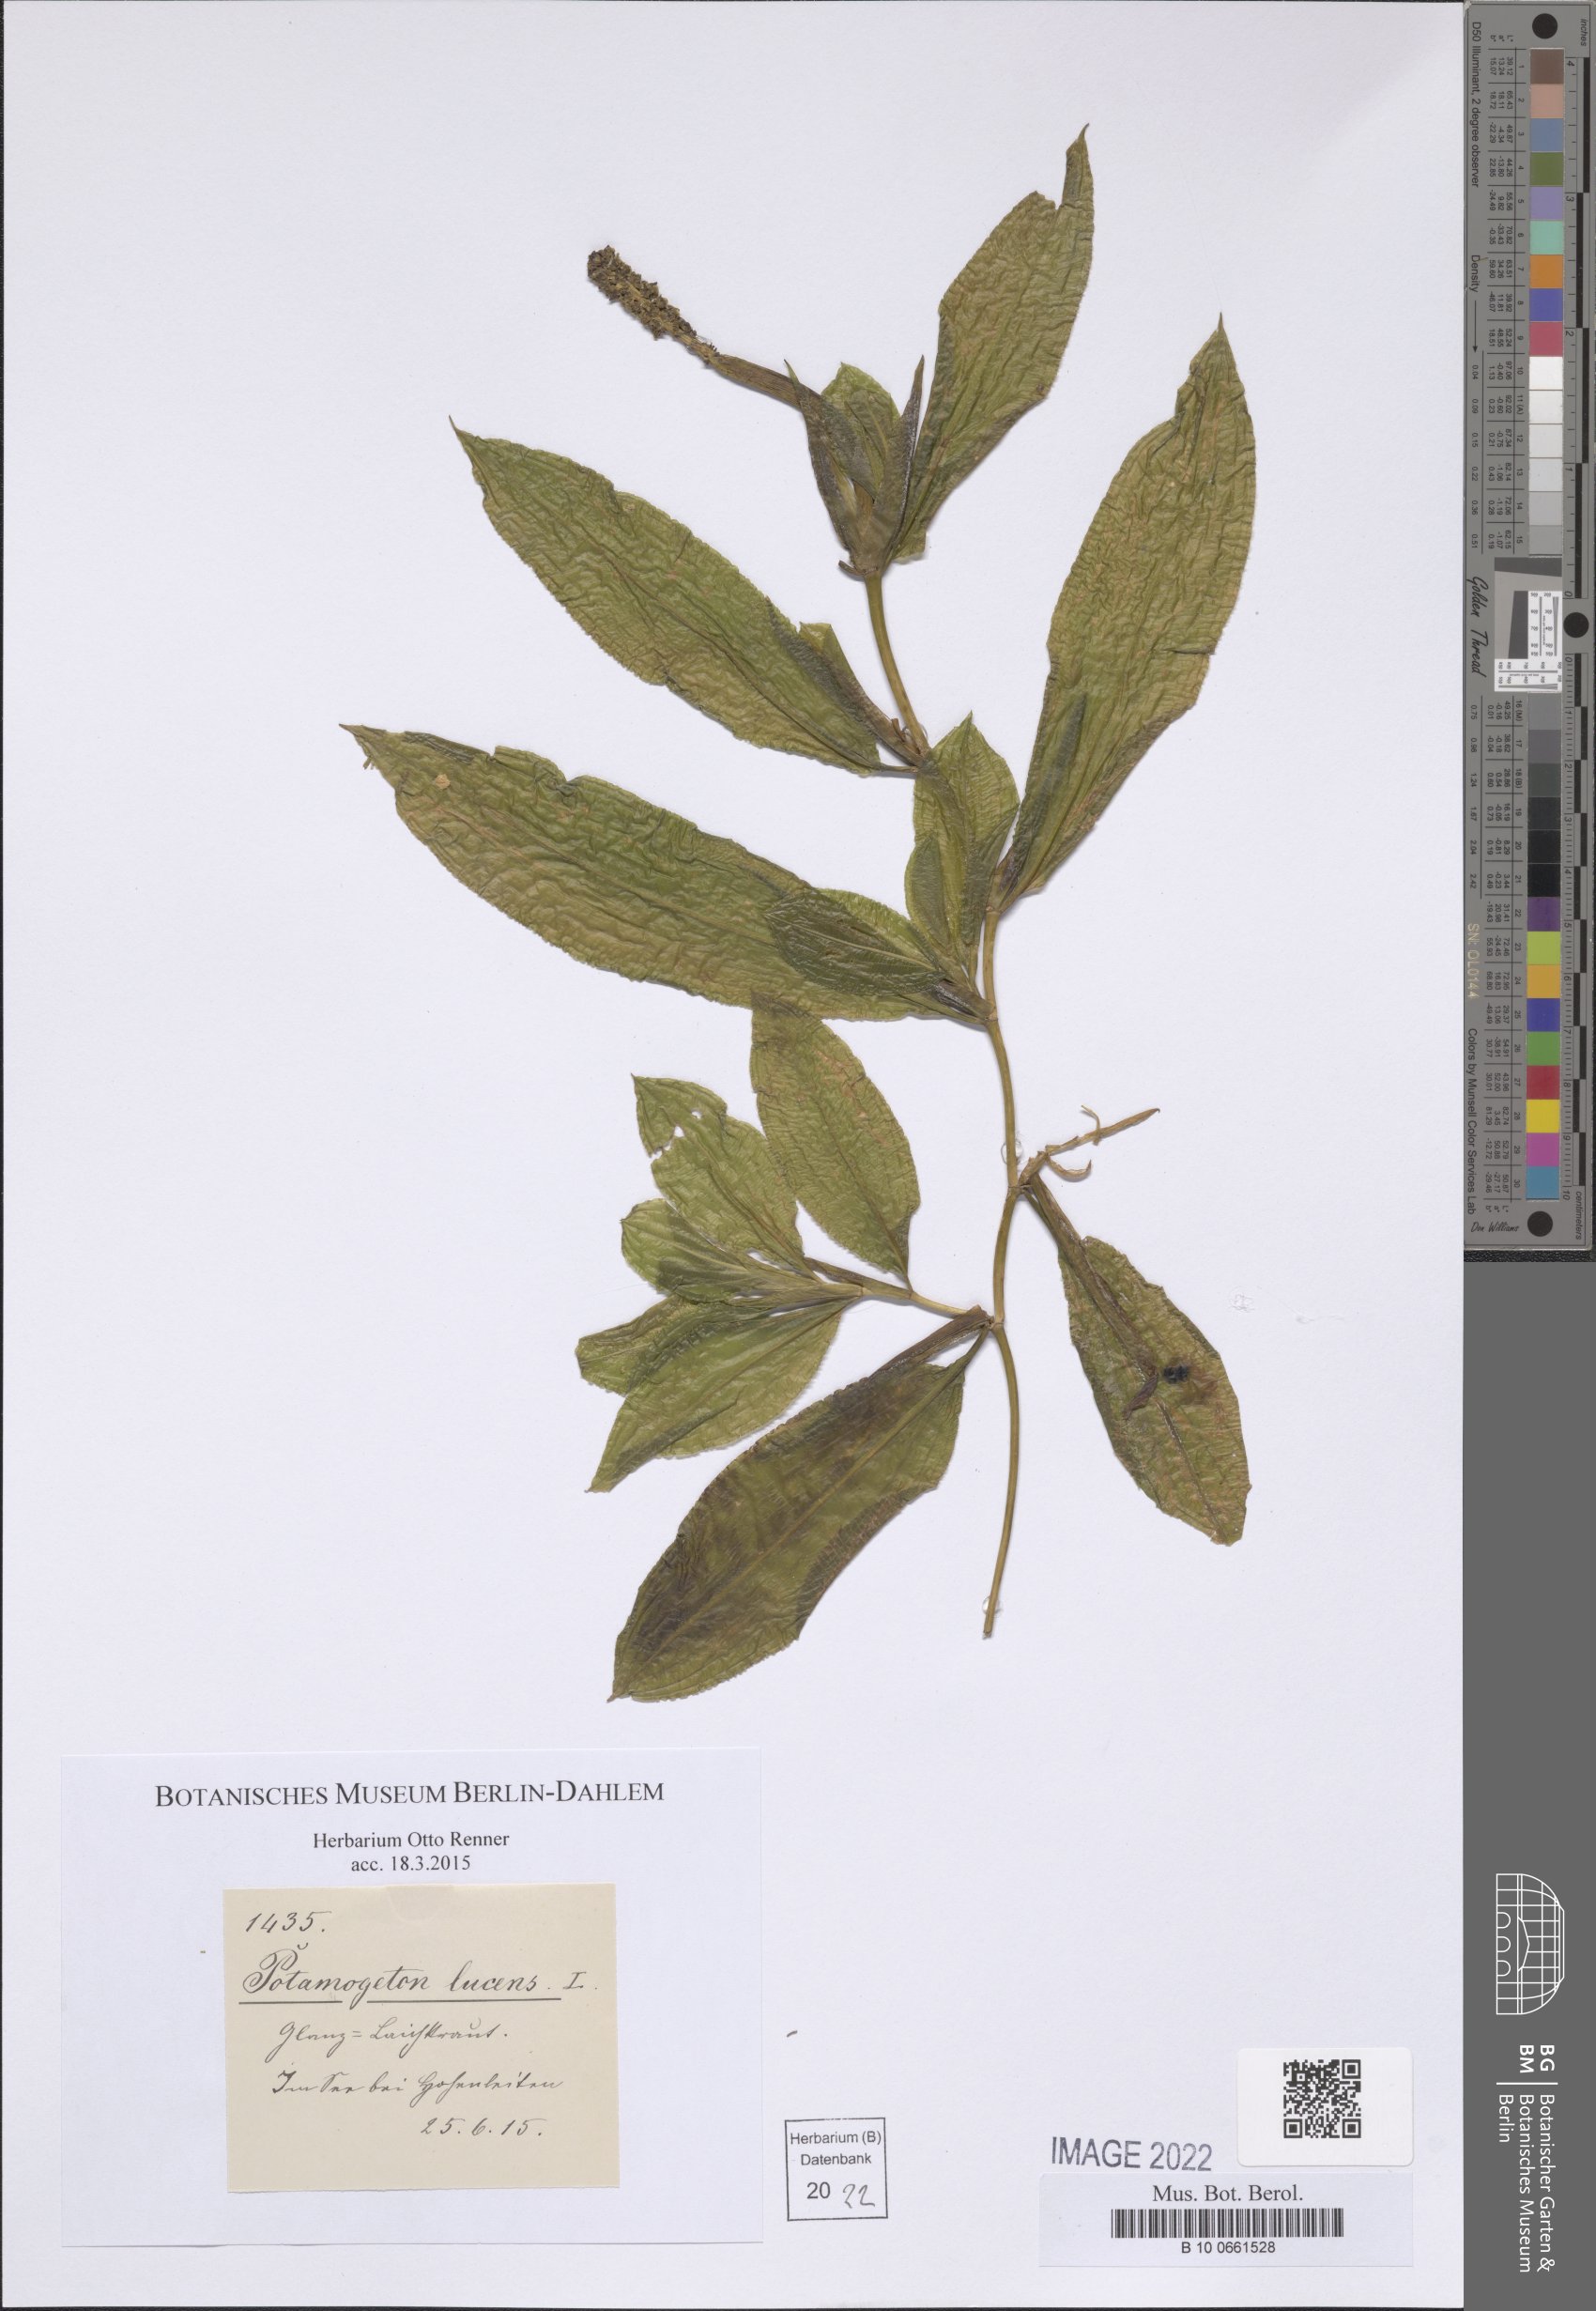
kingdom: Plantae
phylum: Tracheophyta
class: Liliopsida
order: Alismatales
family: Potamogetonaceae
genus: Potamogeton
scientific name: Potamogeton lucens
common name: Shining pondweed
